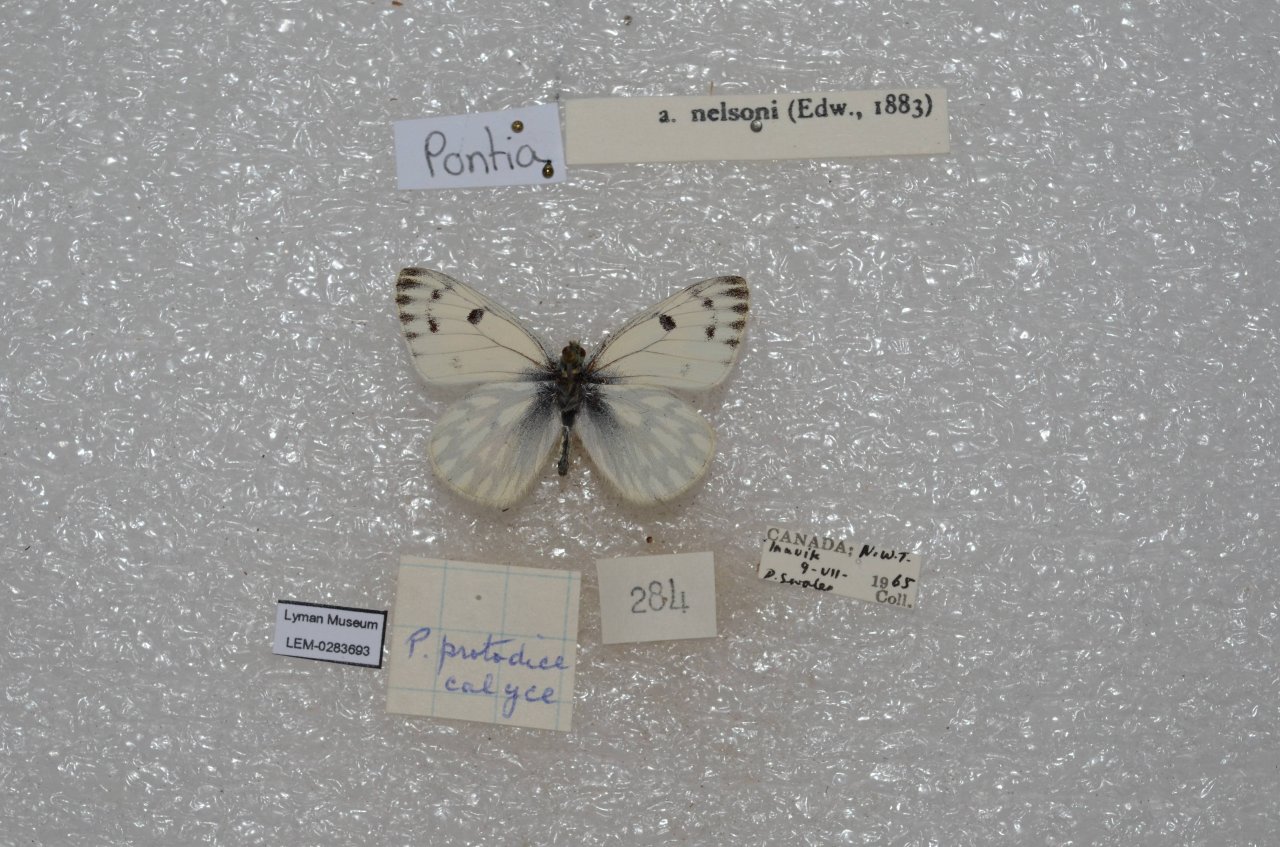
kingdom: Animalia
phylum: Arthropoda
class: Insecta
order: Lepidoptera
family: Pieridae
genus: Pontia
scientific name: Pontia occidentalis
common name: Western White
